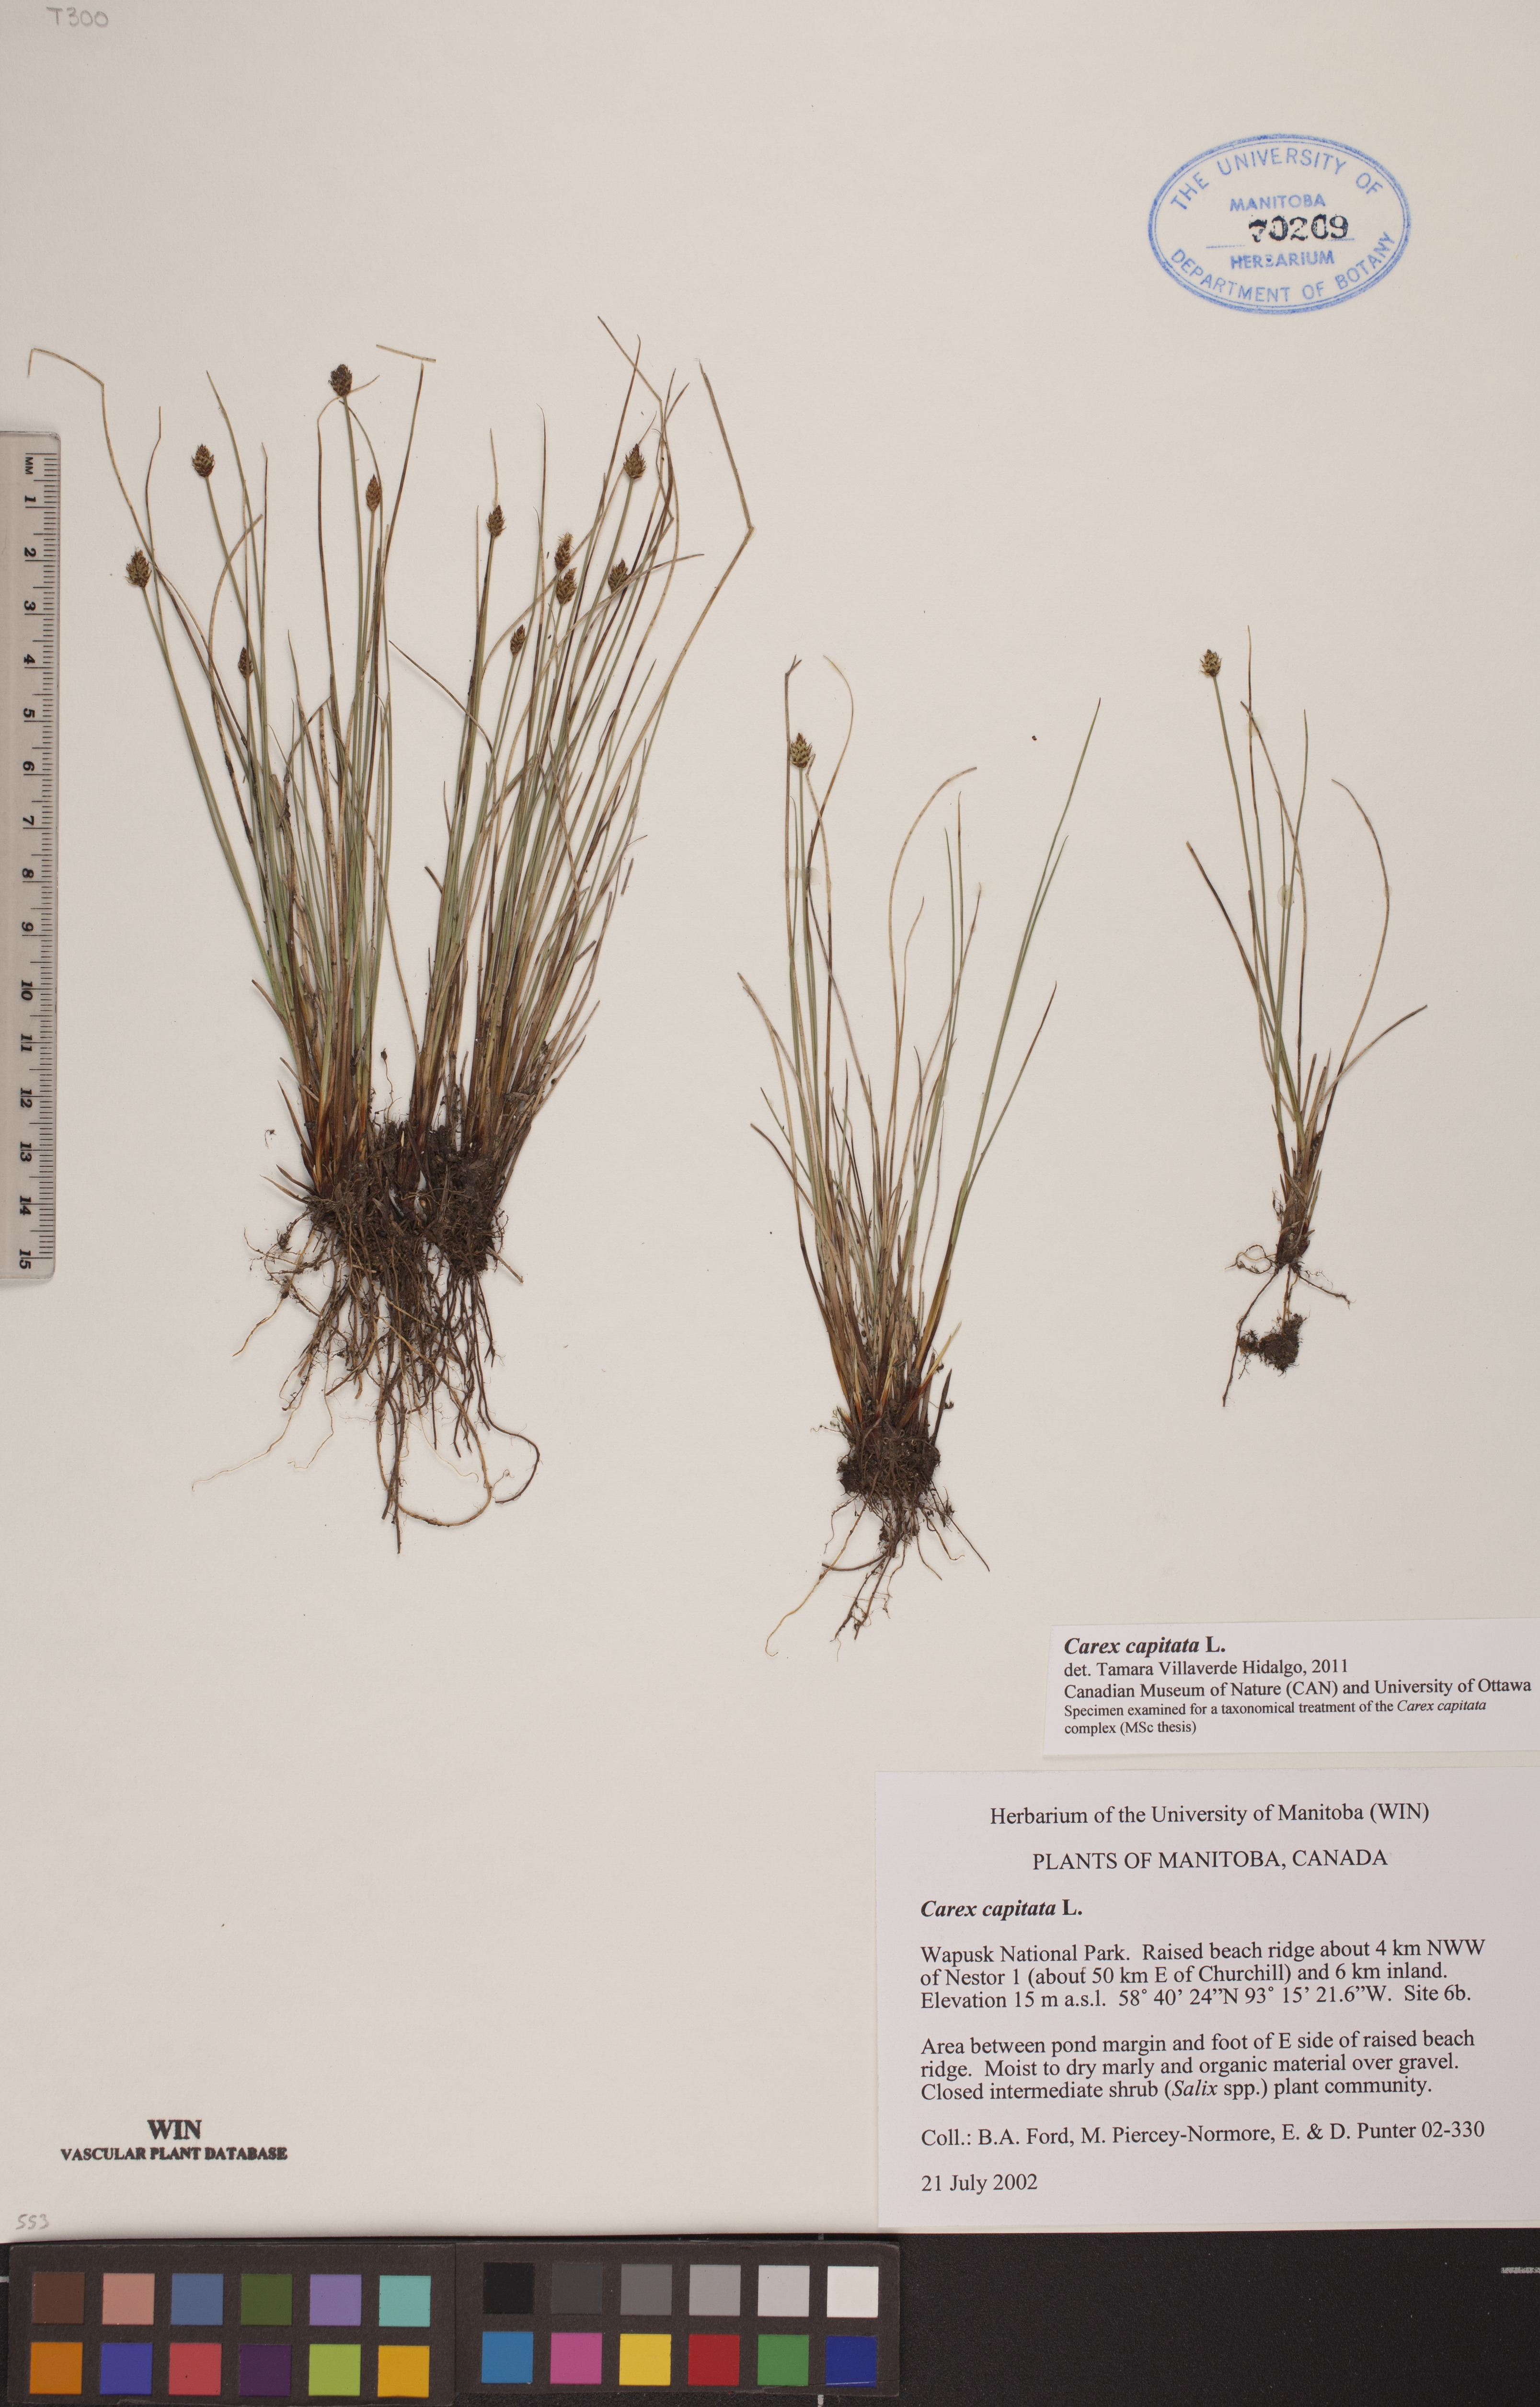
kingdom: Plantae
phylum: Tracheophyta
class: Liliopsida
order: Poales
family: Cyperaceae
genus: Carex
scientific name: Carex capitata
